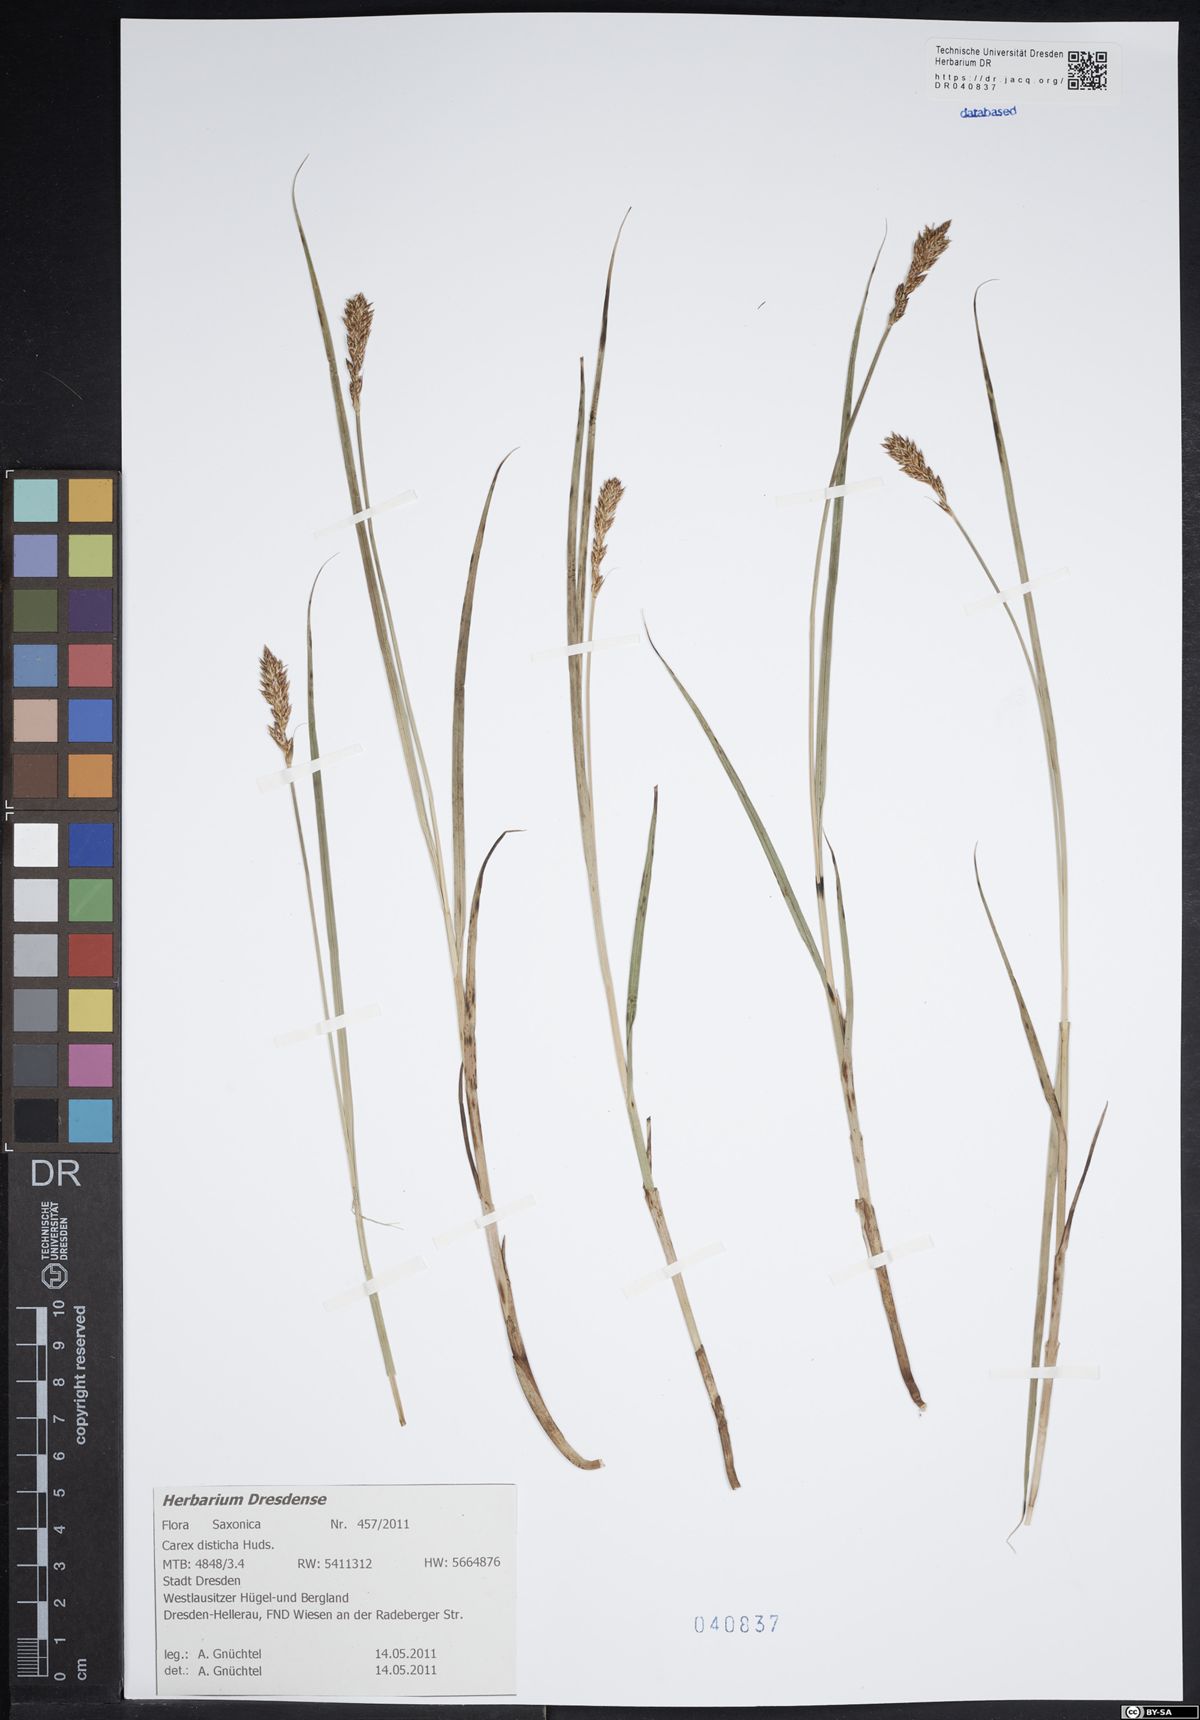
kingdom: Plantae
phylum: Tracheophyta
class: Liliopsida
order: Poales
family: Cyperaceae
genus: Carex
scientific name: Carex disticha
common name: Brown sedge
